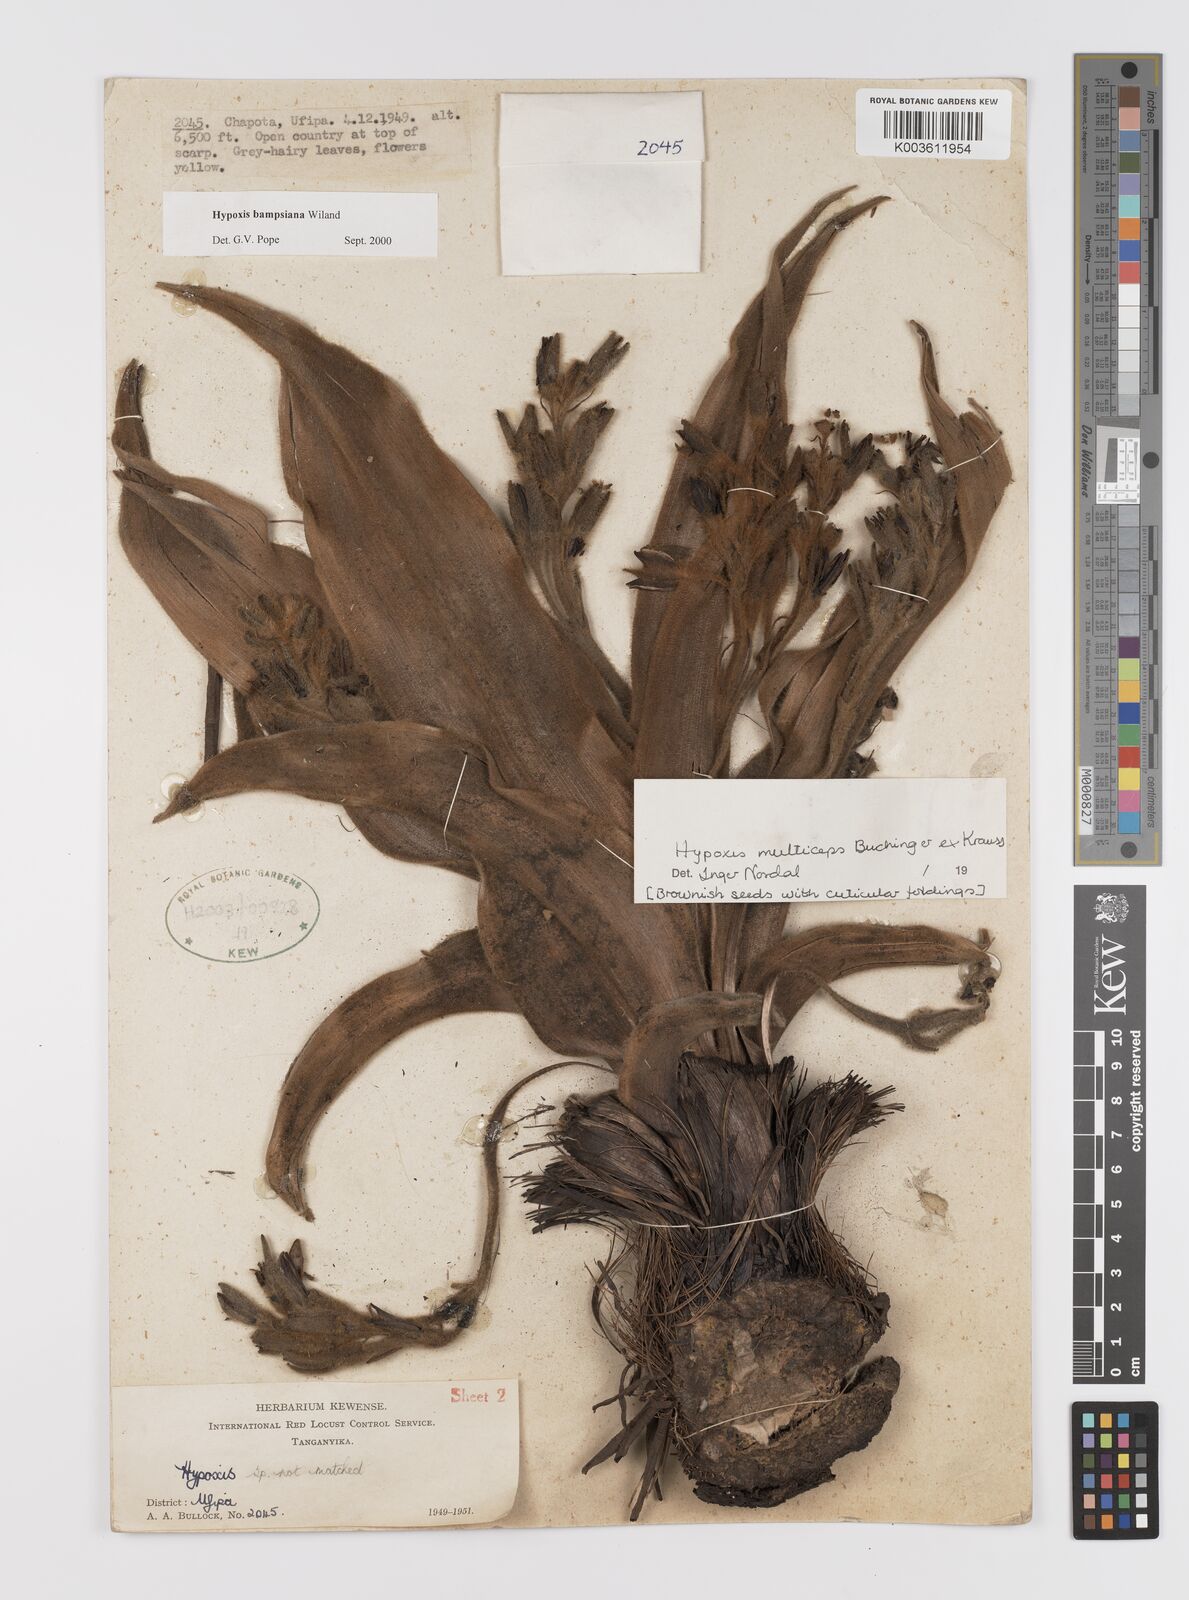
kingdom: Plantae
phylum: Tracheophyta
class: Liliopsida
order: Asparagales
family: Hypoxidaceae
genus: Hypoxis
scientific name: Hypoxis bampsiana
